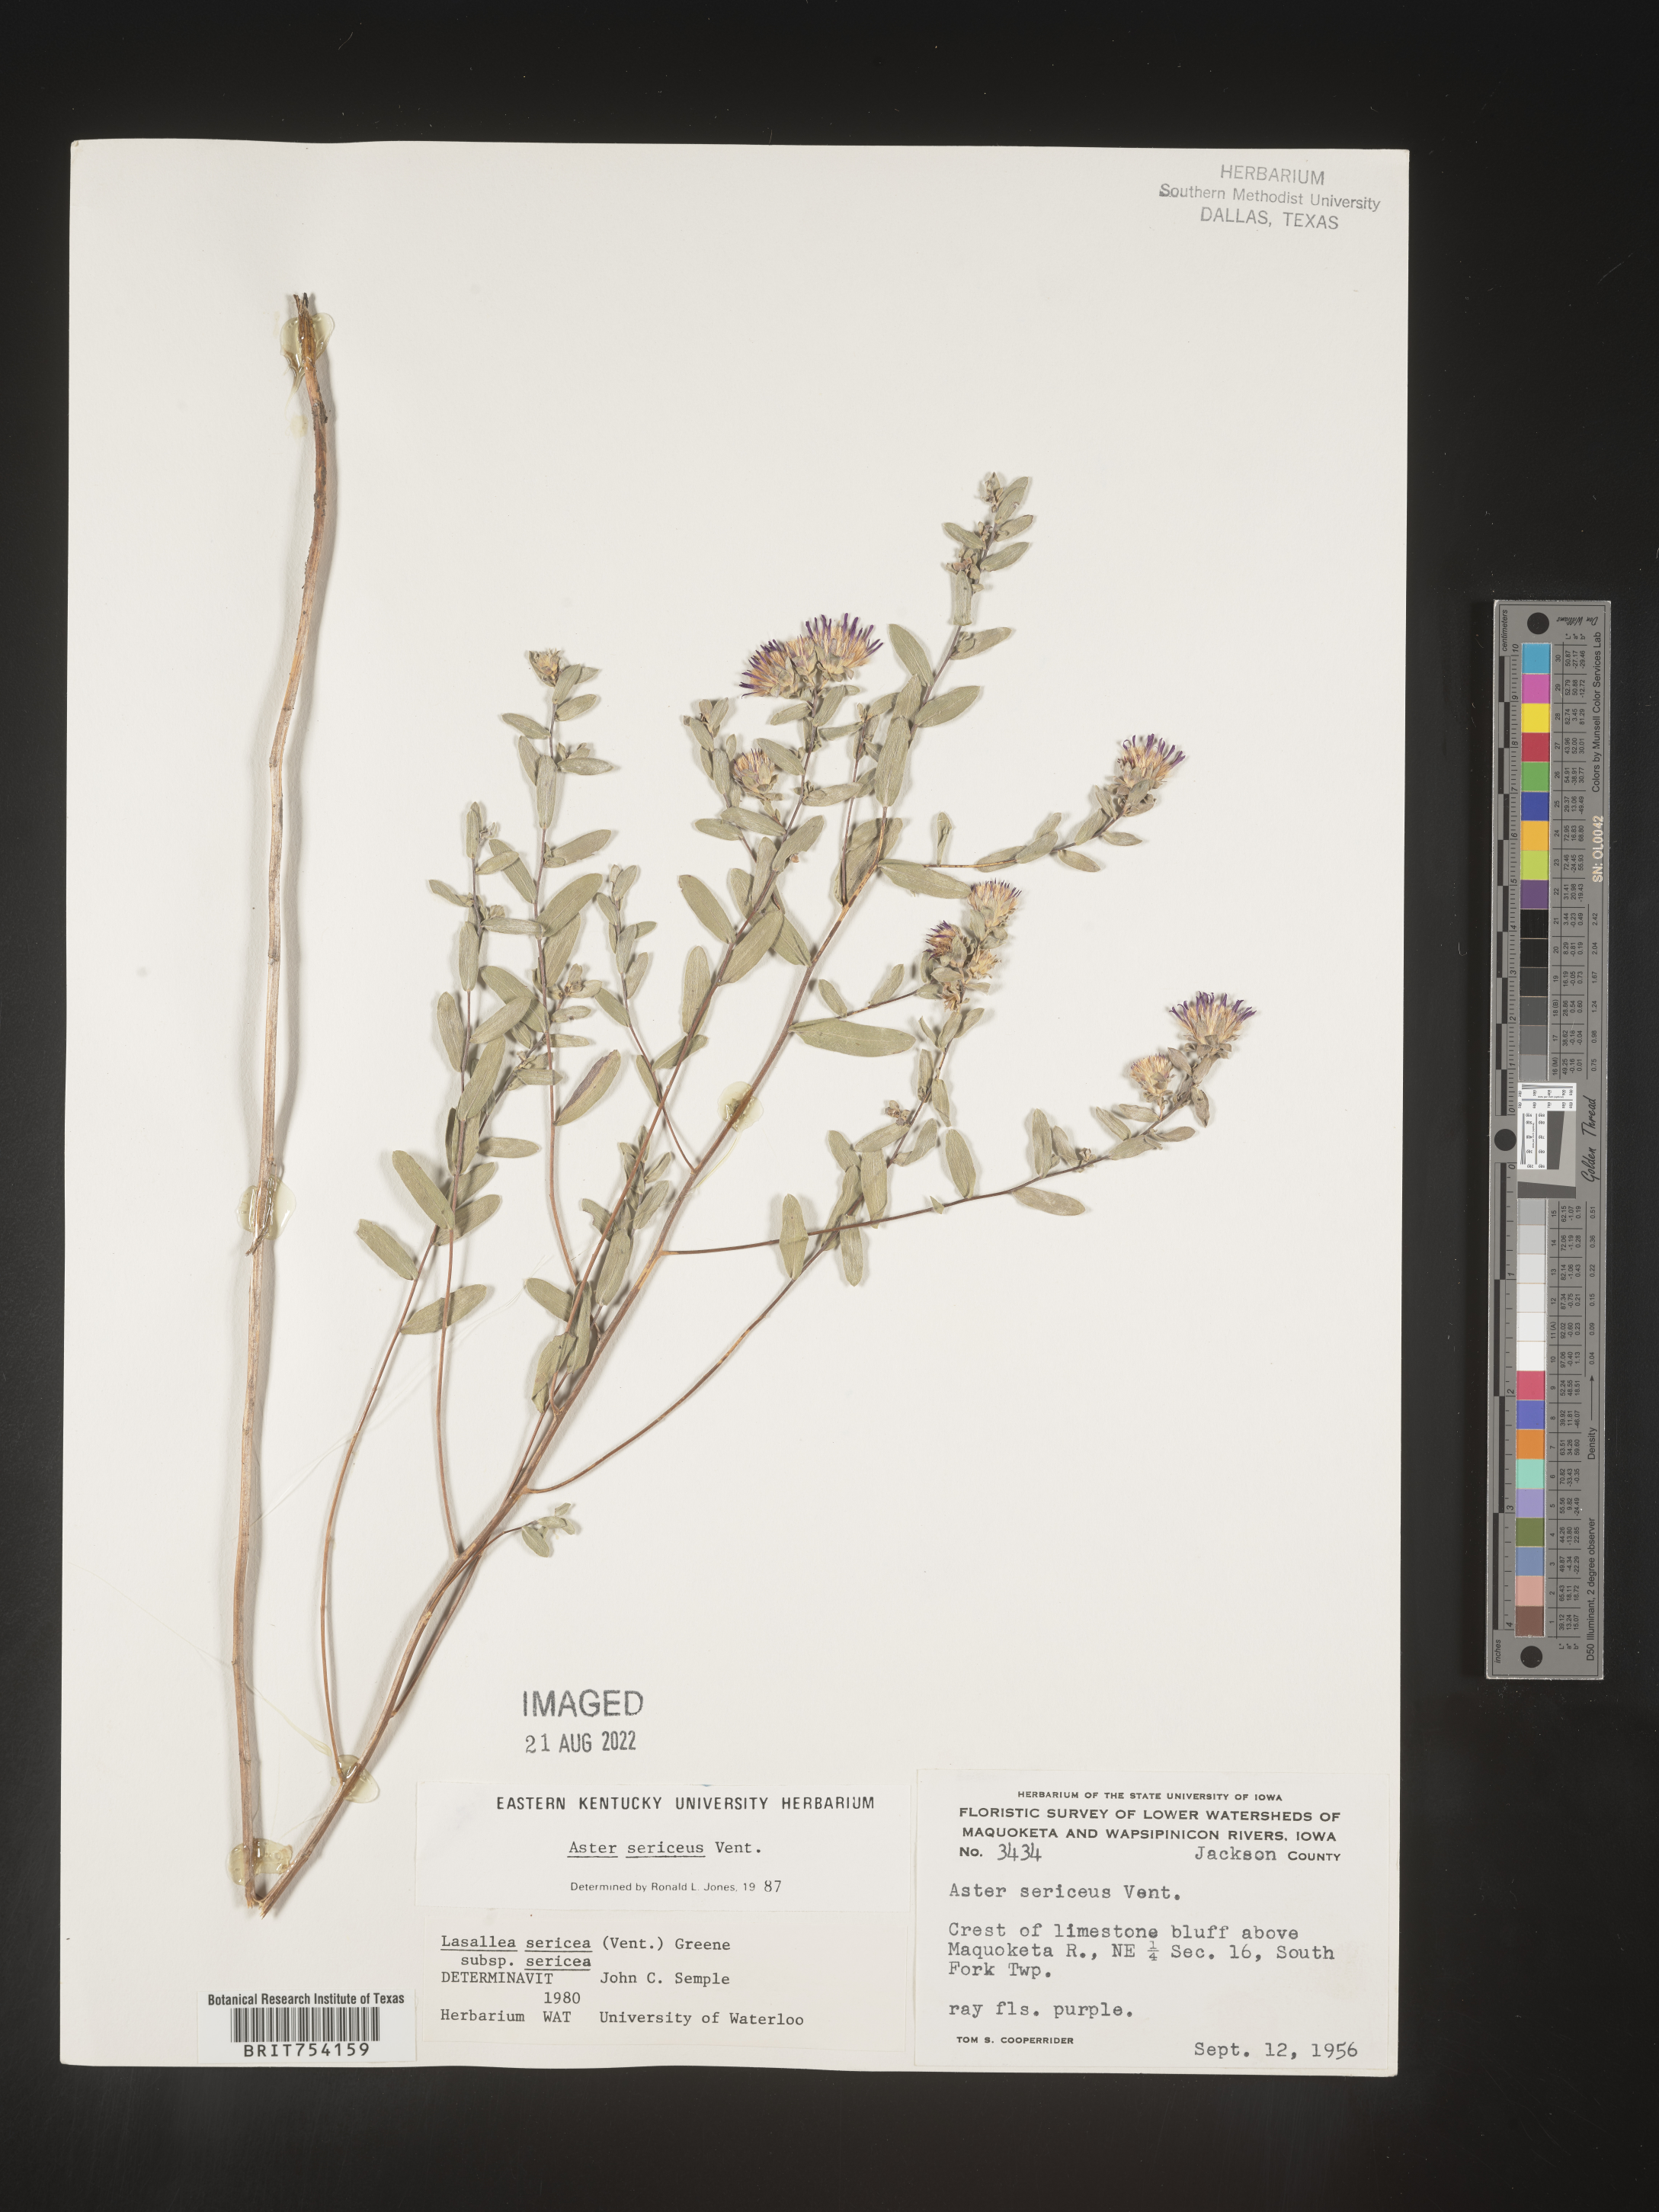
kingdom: Plantae
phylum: Tracheophyta
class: Magnoliopsida
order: Asterales
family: Asteraceae
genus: Symphyotrichum
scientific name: Symphyotrichum sericeum
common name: Silky aster
